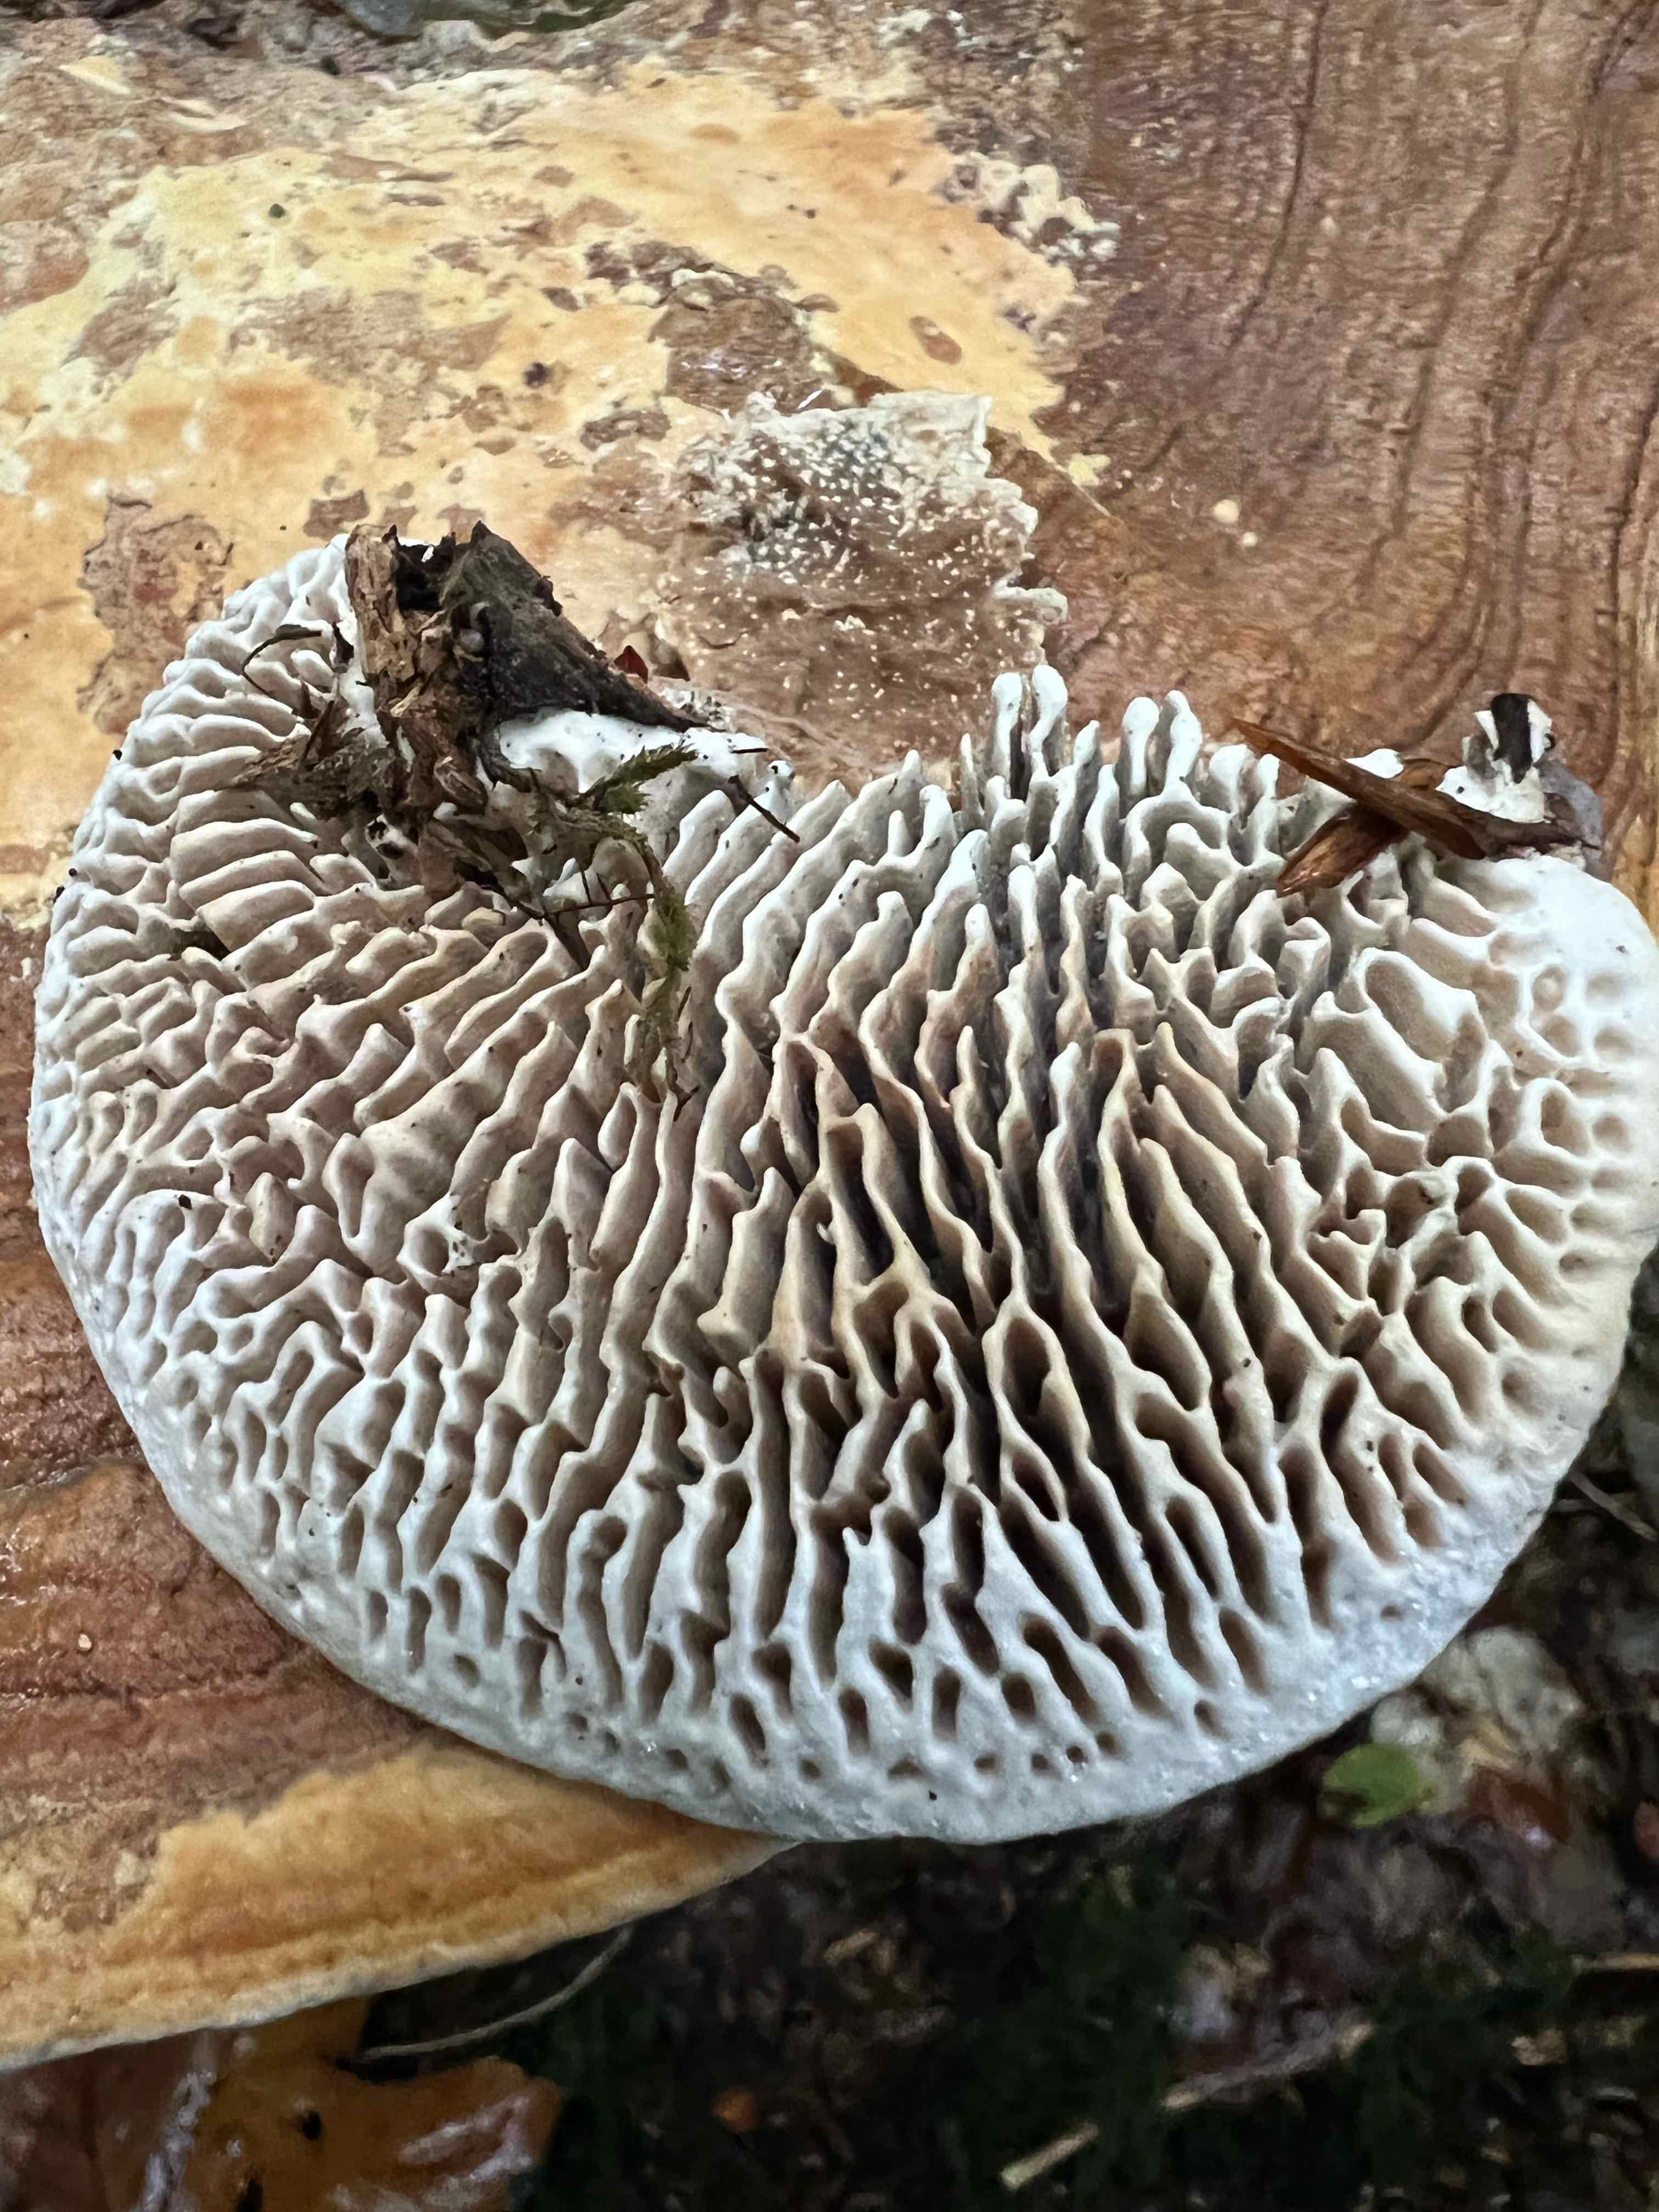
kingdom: Fungi
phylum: Basidiomycota
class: Agaricomycetes
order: Polyporales
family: Fomitopsidaceae
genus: Daedalea
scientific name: Daedalea quercina
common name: ege-labyrintsvamp
